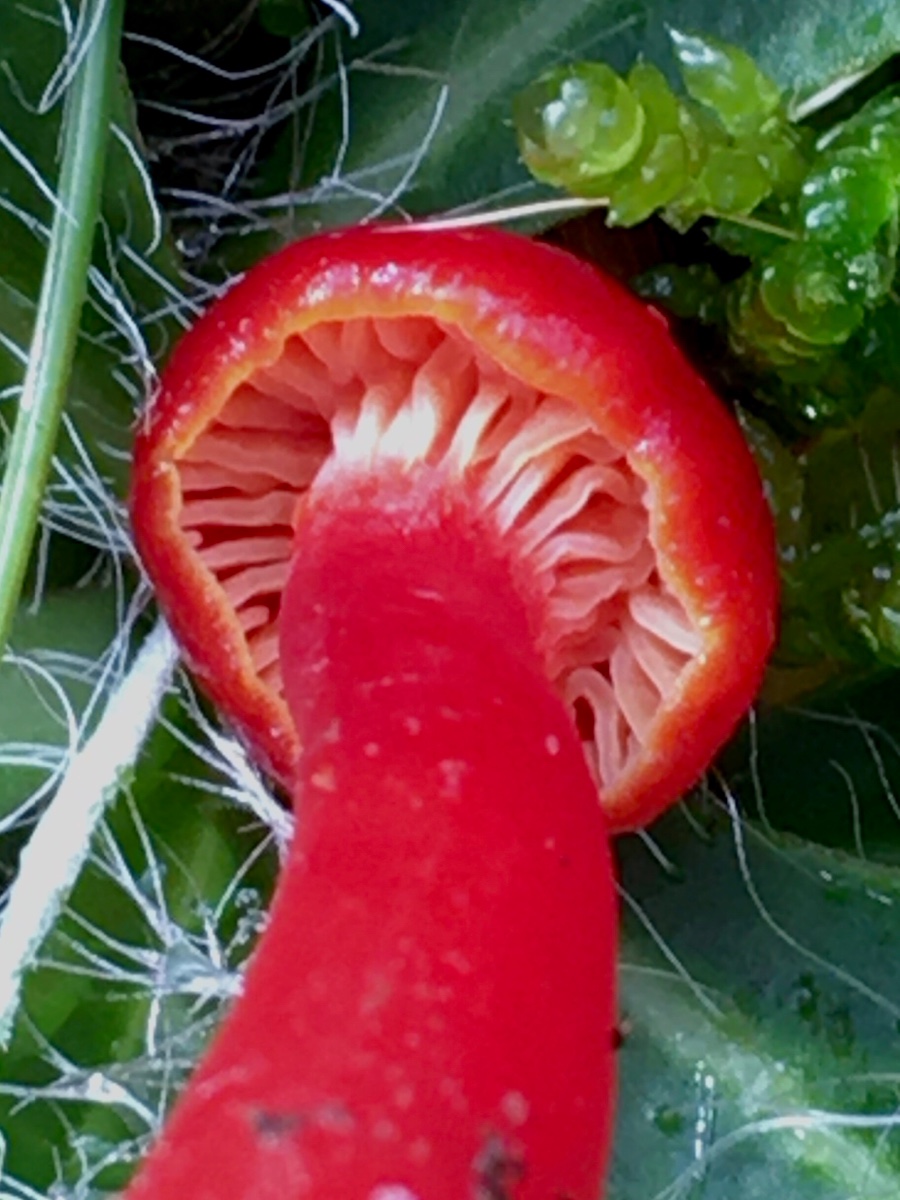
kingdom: Fungi
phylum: Basidiomycota
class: Agaricomycetes
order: Agaricales
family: Hygrophoraceae
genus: Hygrocybe
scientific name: Hygrocybe phaeococcinea
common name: sortdugget vokshat
